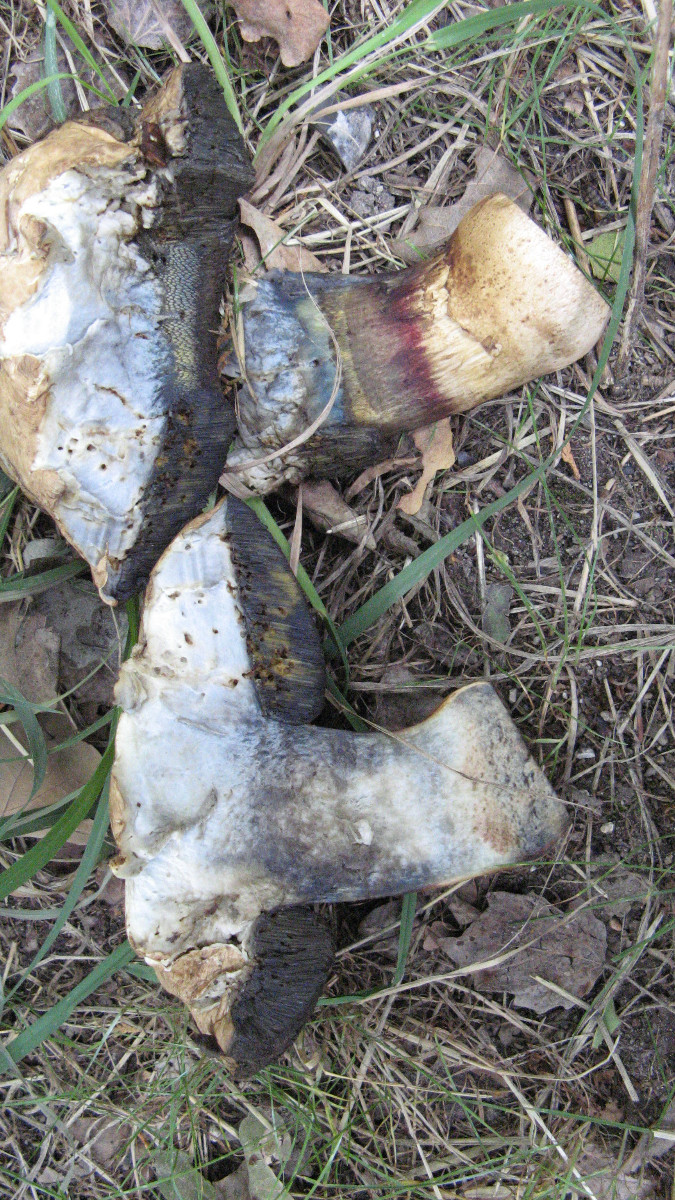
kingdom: Fungi
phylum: Basidiomycota
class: Agaricomycetes
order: Boletales
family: Boletaceae
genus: Caloboletus
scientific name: Caloboletus calopus
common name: skønfodet rørhat
